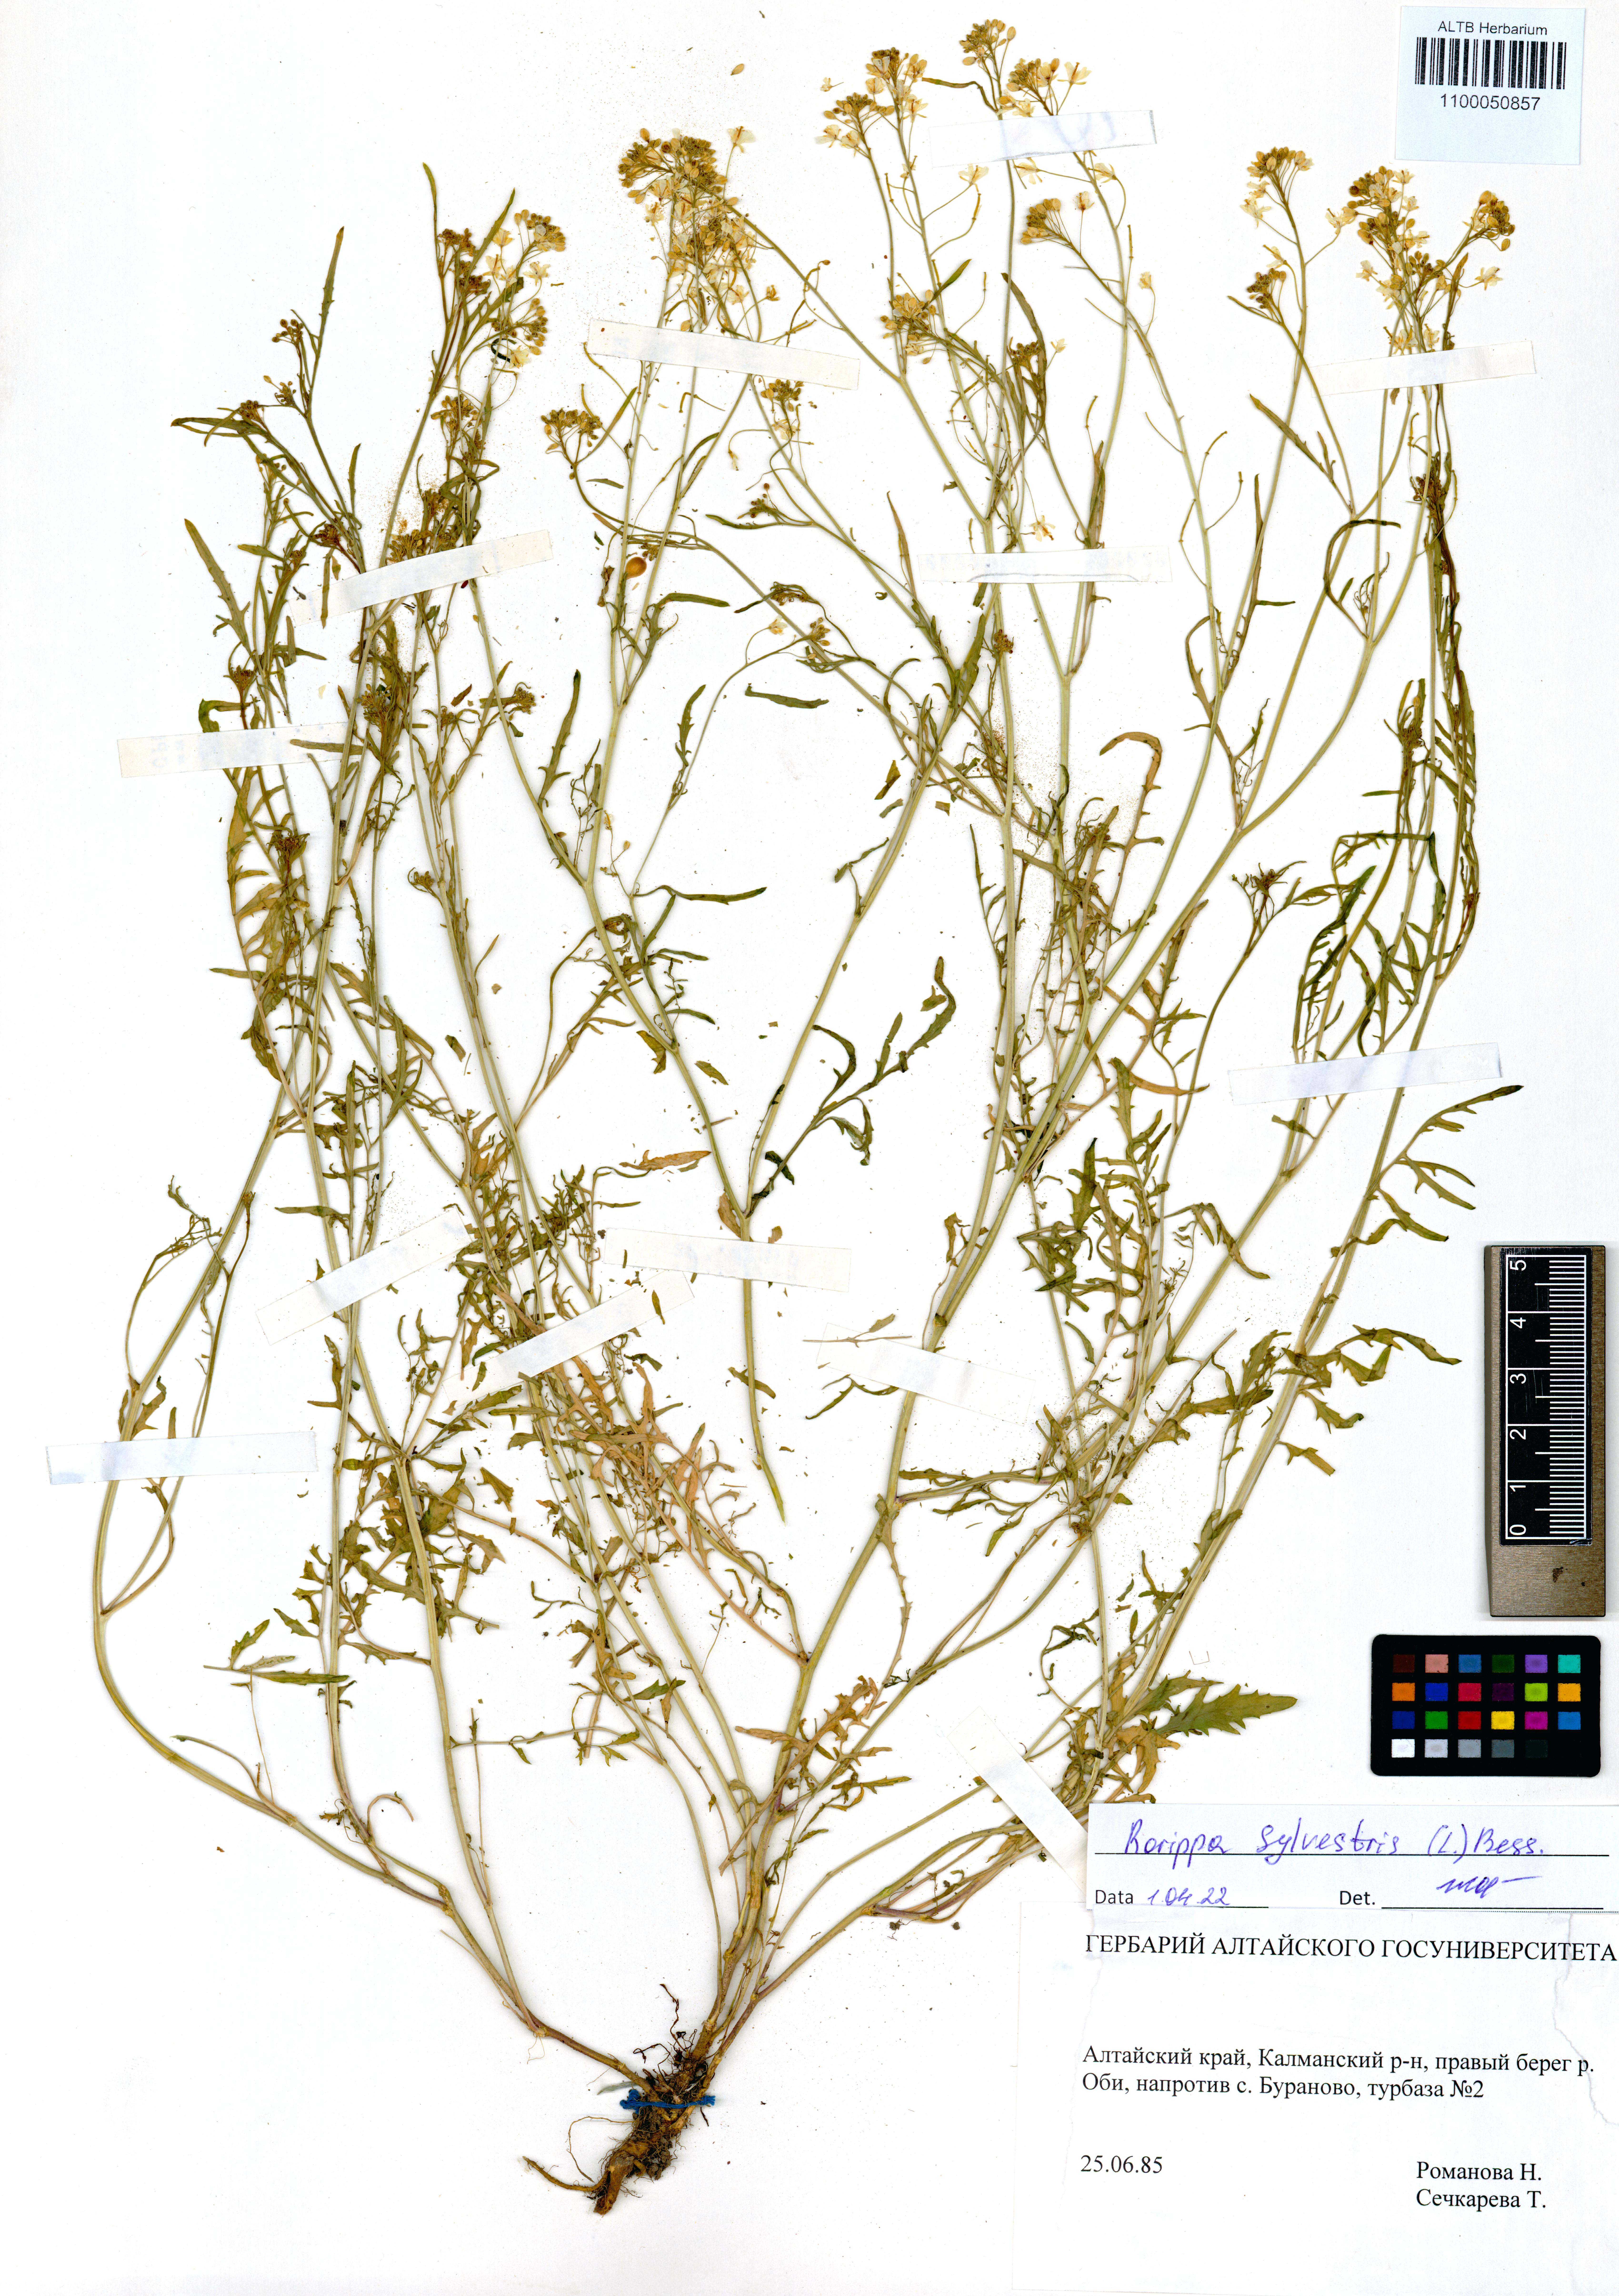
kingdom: Plantae
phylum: Tracheophyta
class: Magnoliopsida
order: Brassicales
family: Brassicaceae
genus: Rorippa
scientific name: Rorippa sylvestris
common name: Creeping yellowcress
